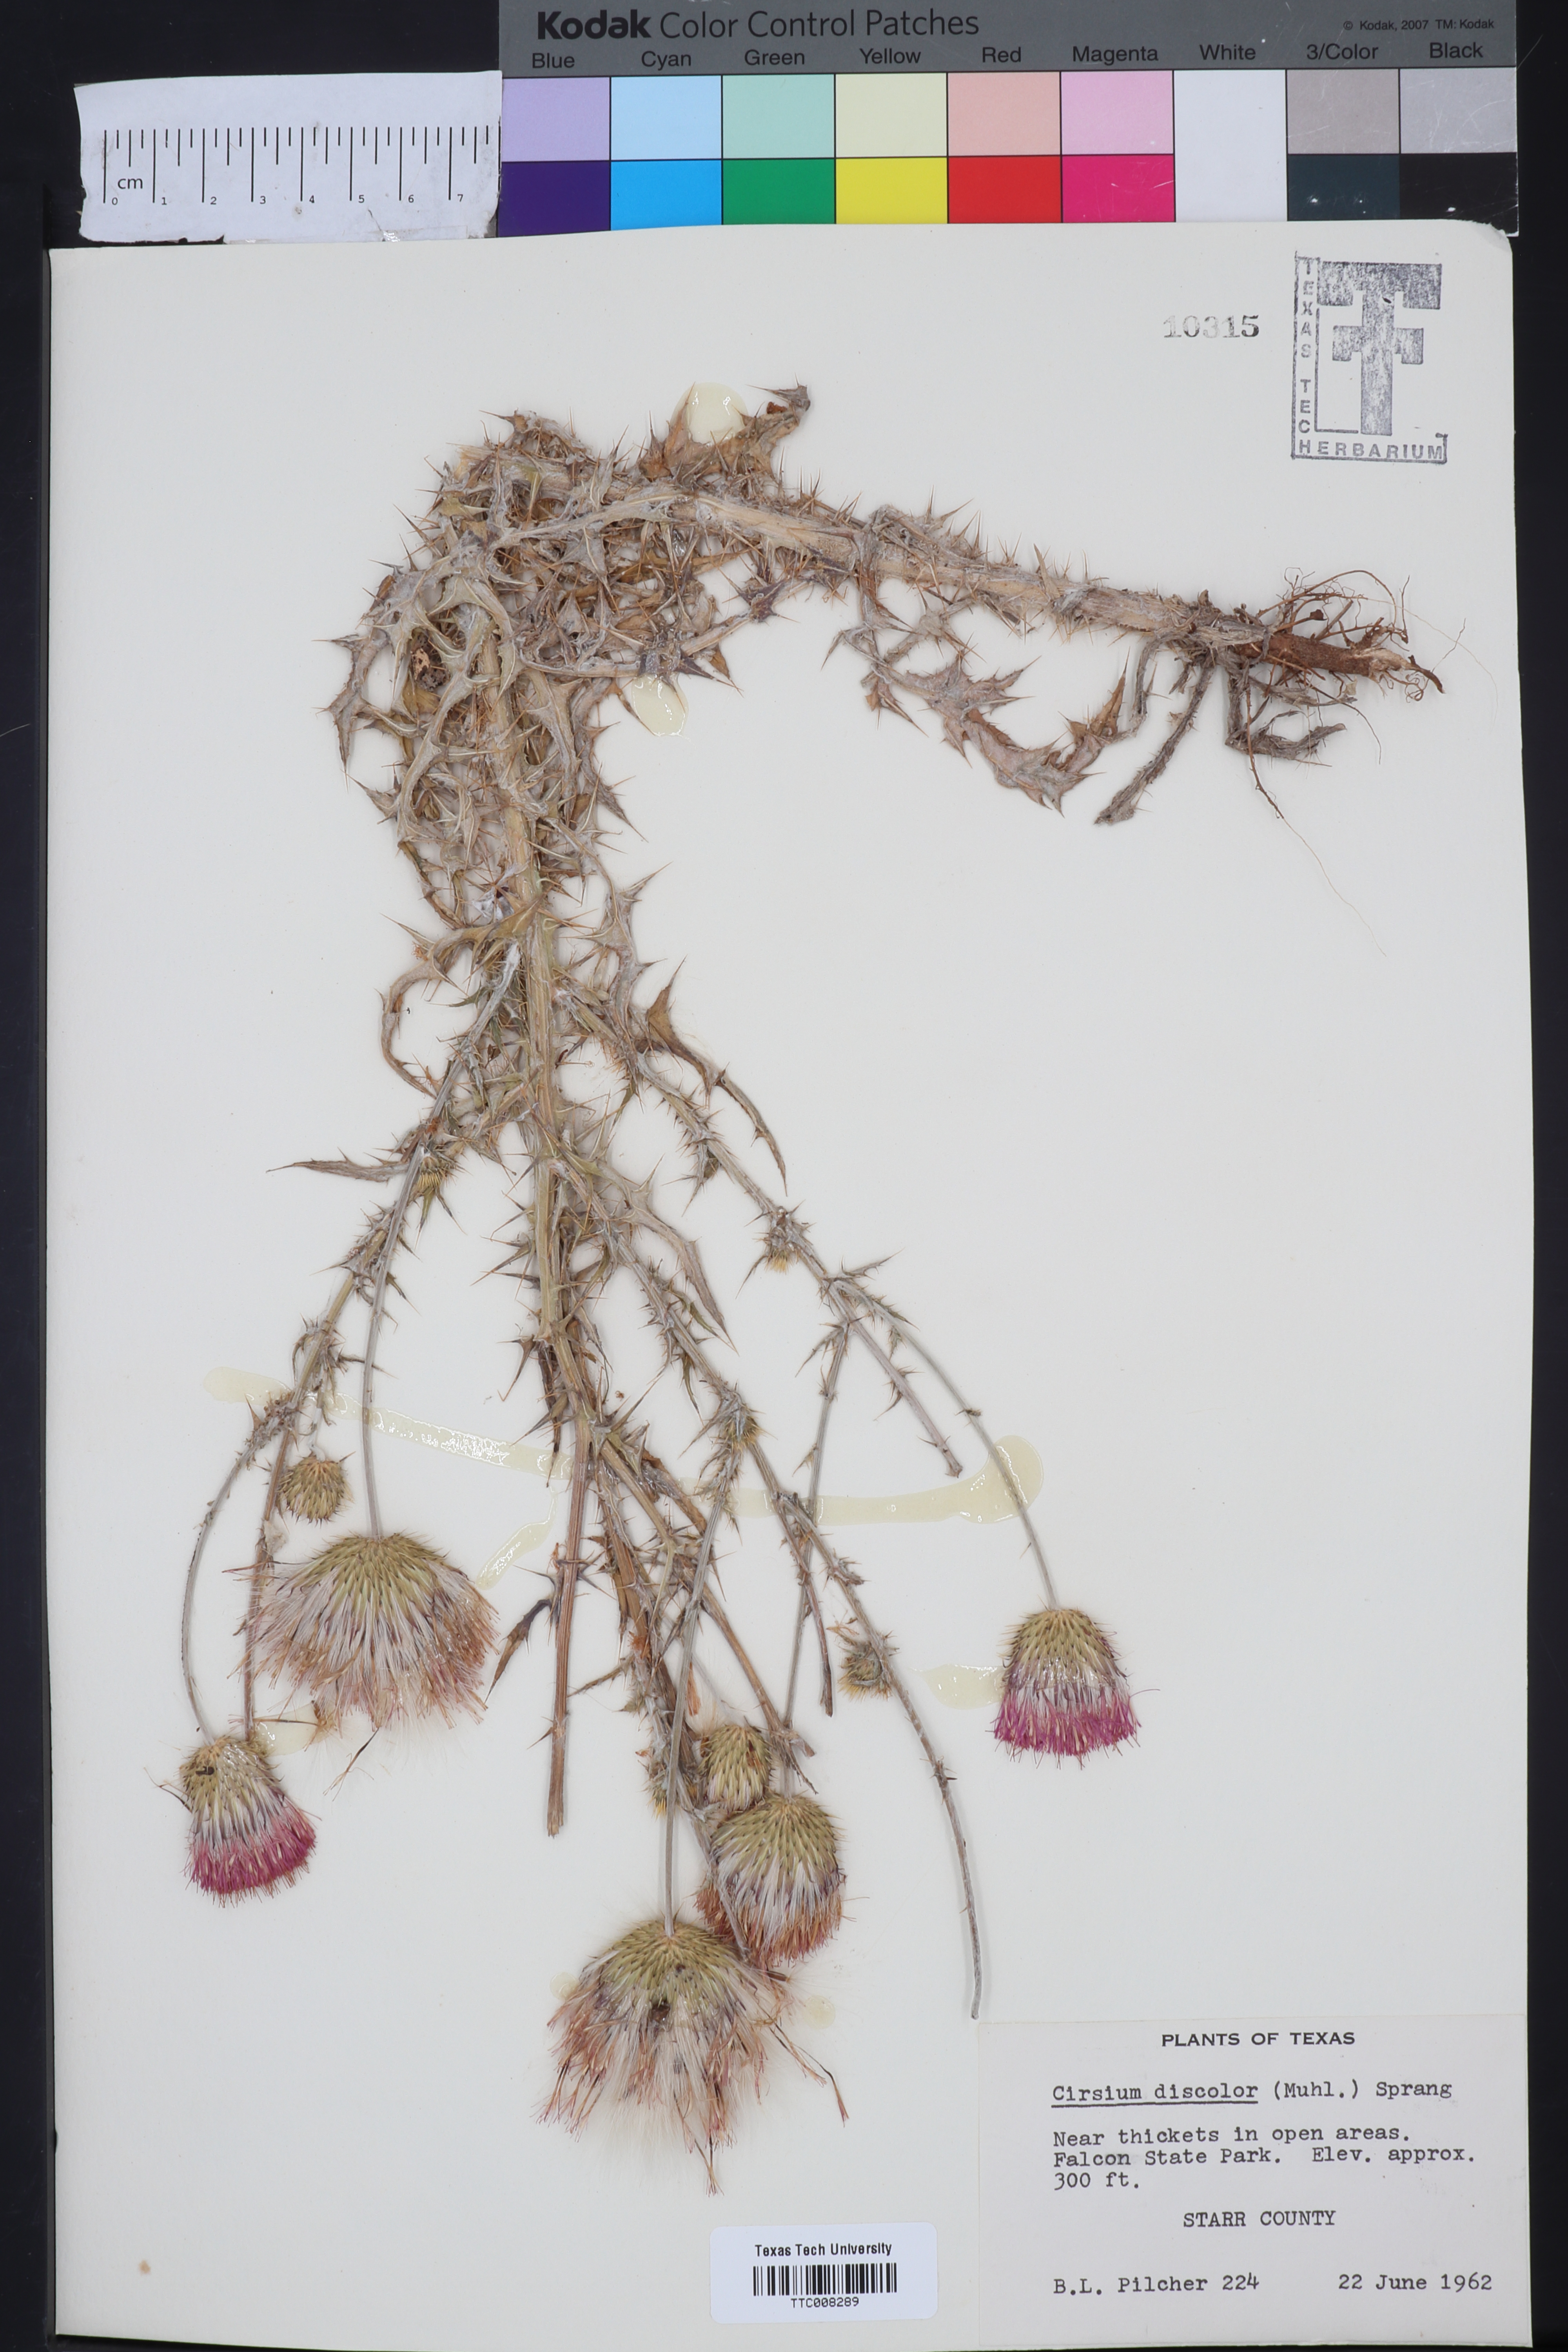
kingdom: Plantae
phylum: Tracheophyta
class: Magnoliopsida
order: Asterales
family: Asteraceae
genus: Cirsium
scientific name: Cirsium discolor
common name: Field thistle
